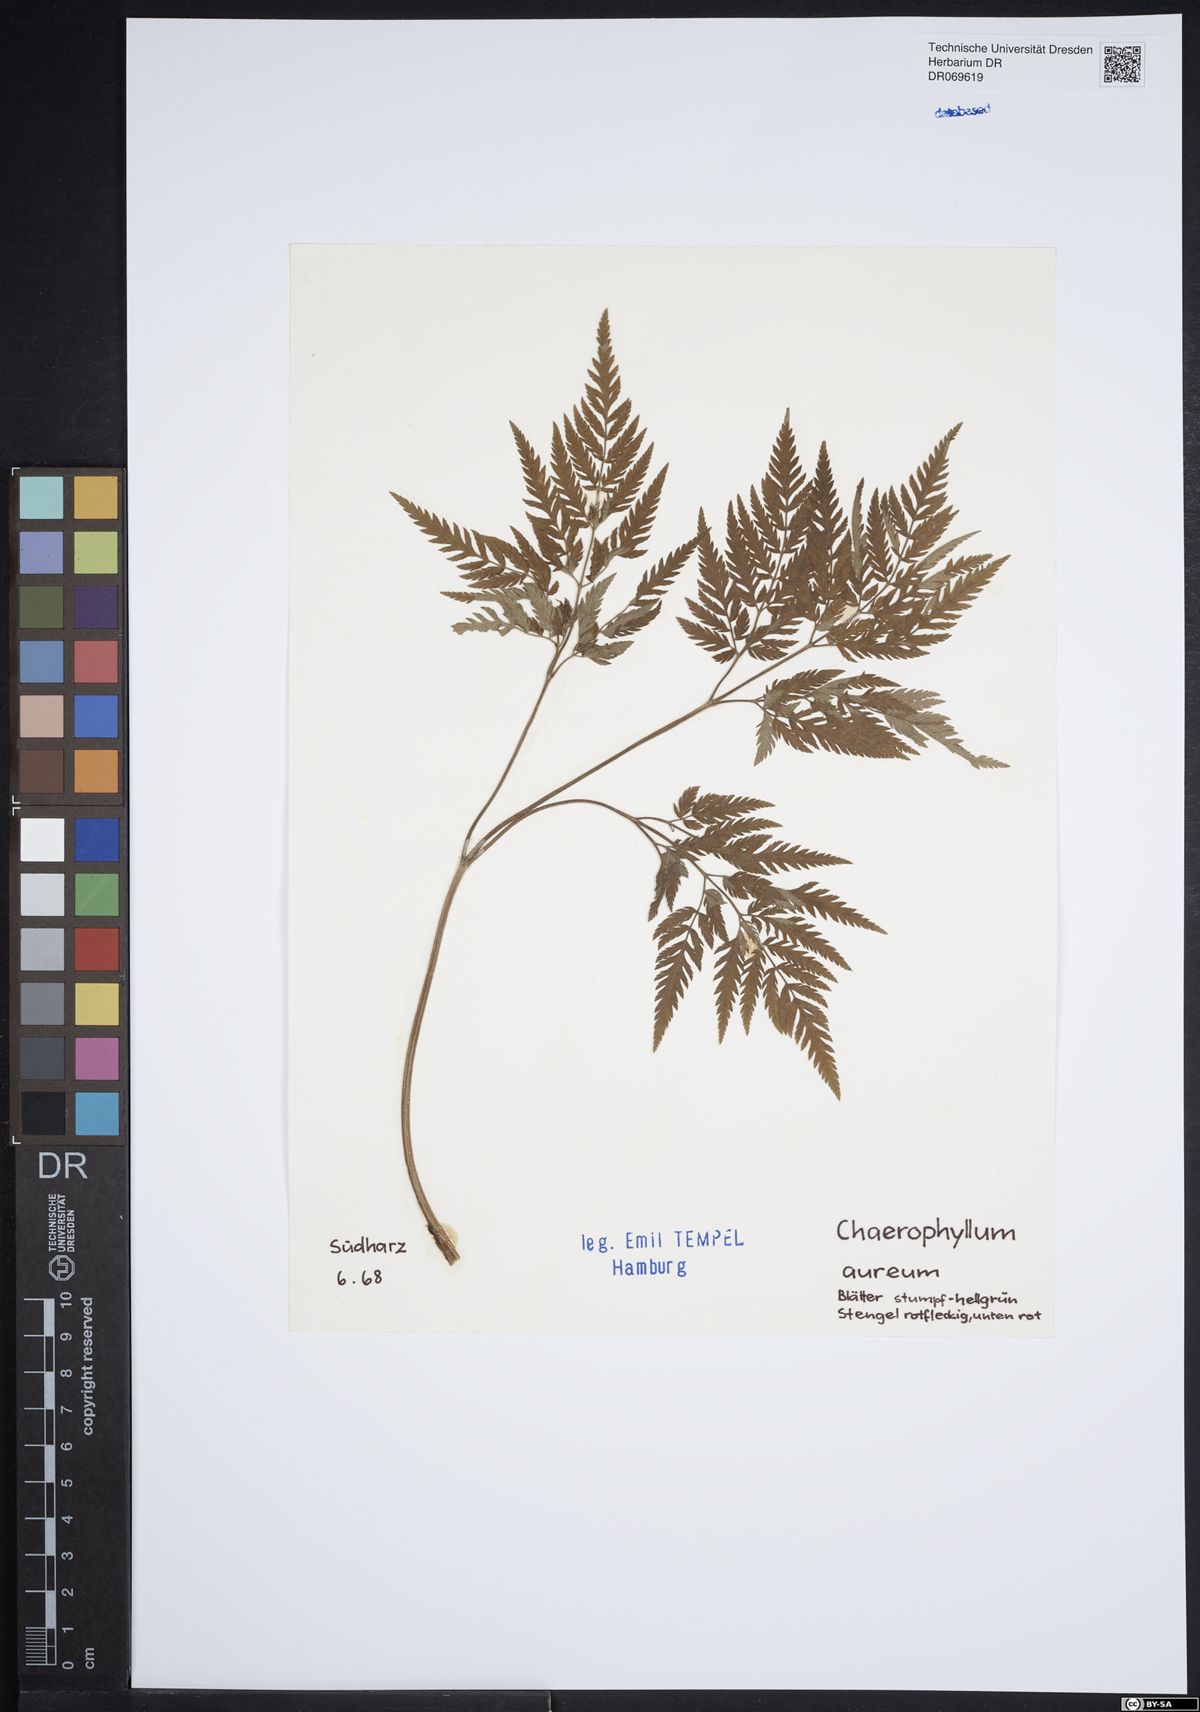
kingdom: Plantae
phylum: Tracheophyta
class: Magnoliopsida
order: Apiales
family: Apiaceae
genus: Chaerophyllum
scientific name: Chaerophyllum aureum
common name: Golden chervil
